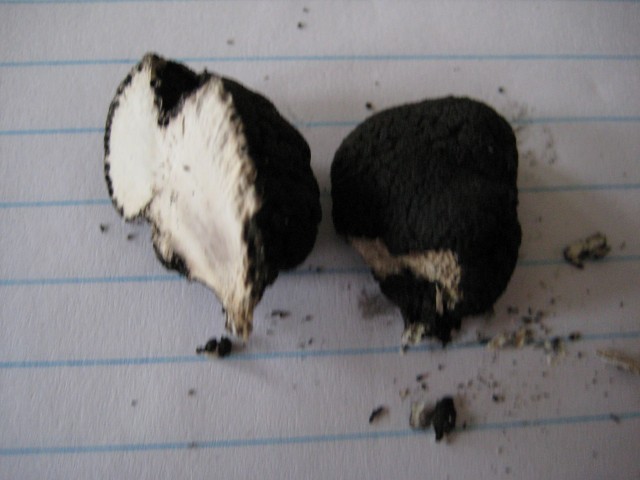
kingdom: Fungi
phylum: Ascomycota
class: Sordariomycetes
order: Xylariales
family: Xylariaceae
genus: Xylaria
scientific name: Xylaria polymorpha
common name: kølle-stødsvamp
